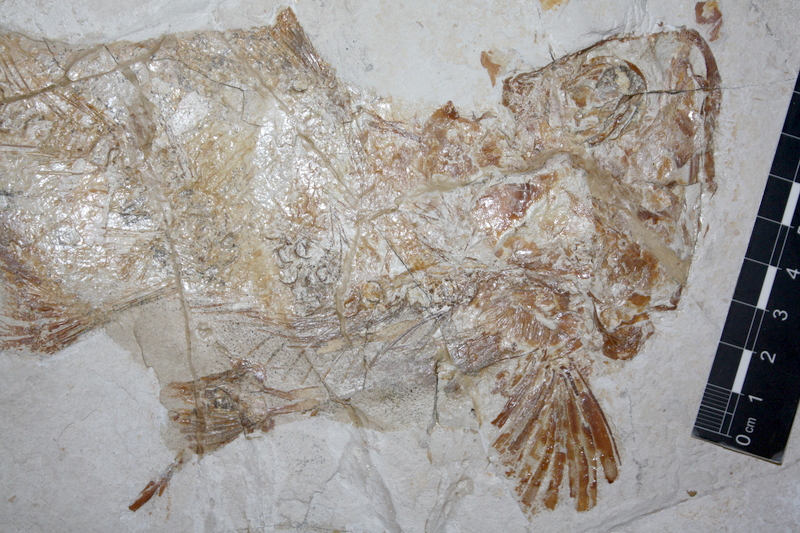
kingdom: Animalia
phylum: Chordata
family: Eurycormidae
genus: Eurycormus
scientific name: Eurycormus
